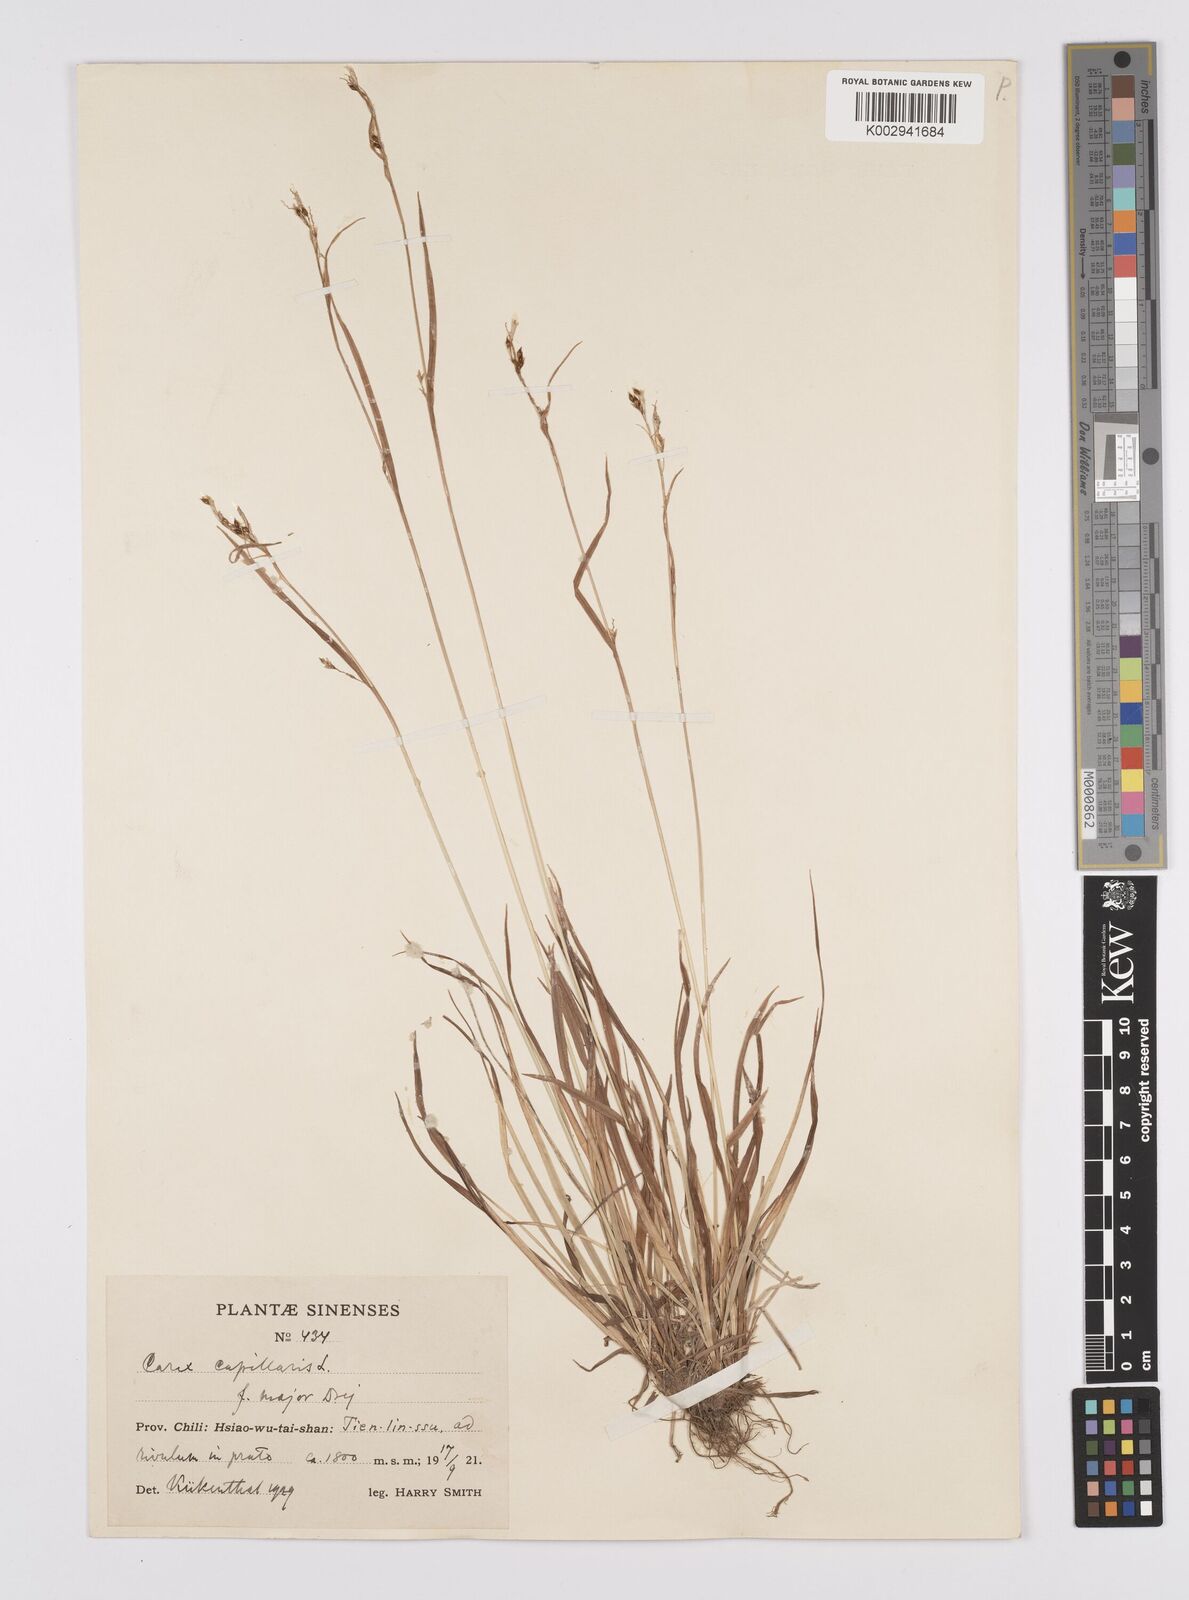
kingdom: Plantae
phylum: Tracheophyta
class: Liliopsida
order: Poales
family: Cyperaceae
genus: Carex
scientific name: Carex capillaris
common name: Hair sedge
